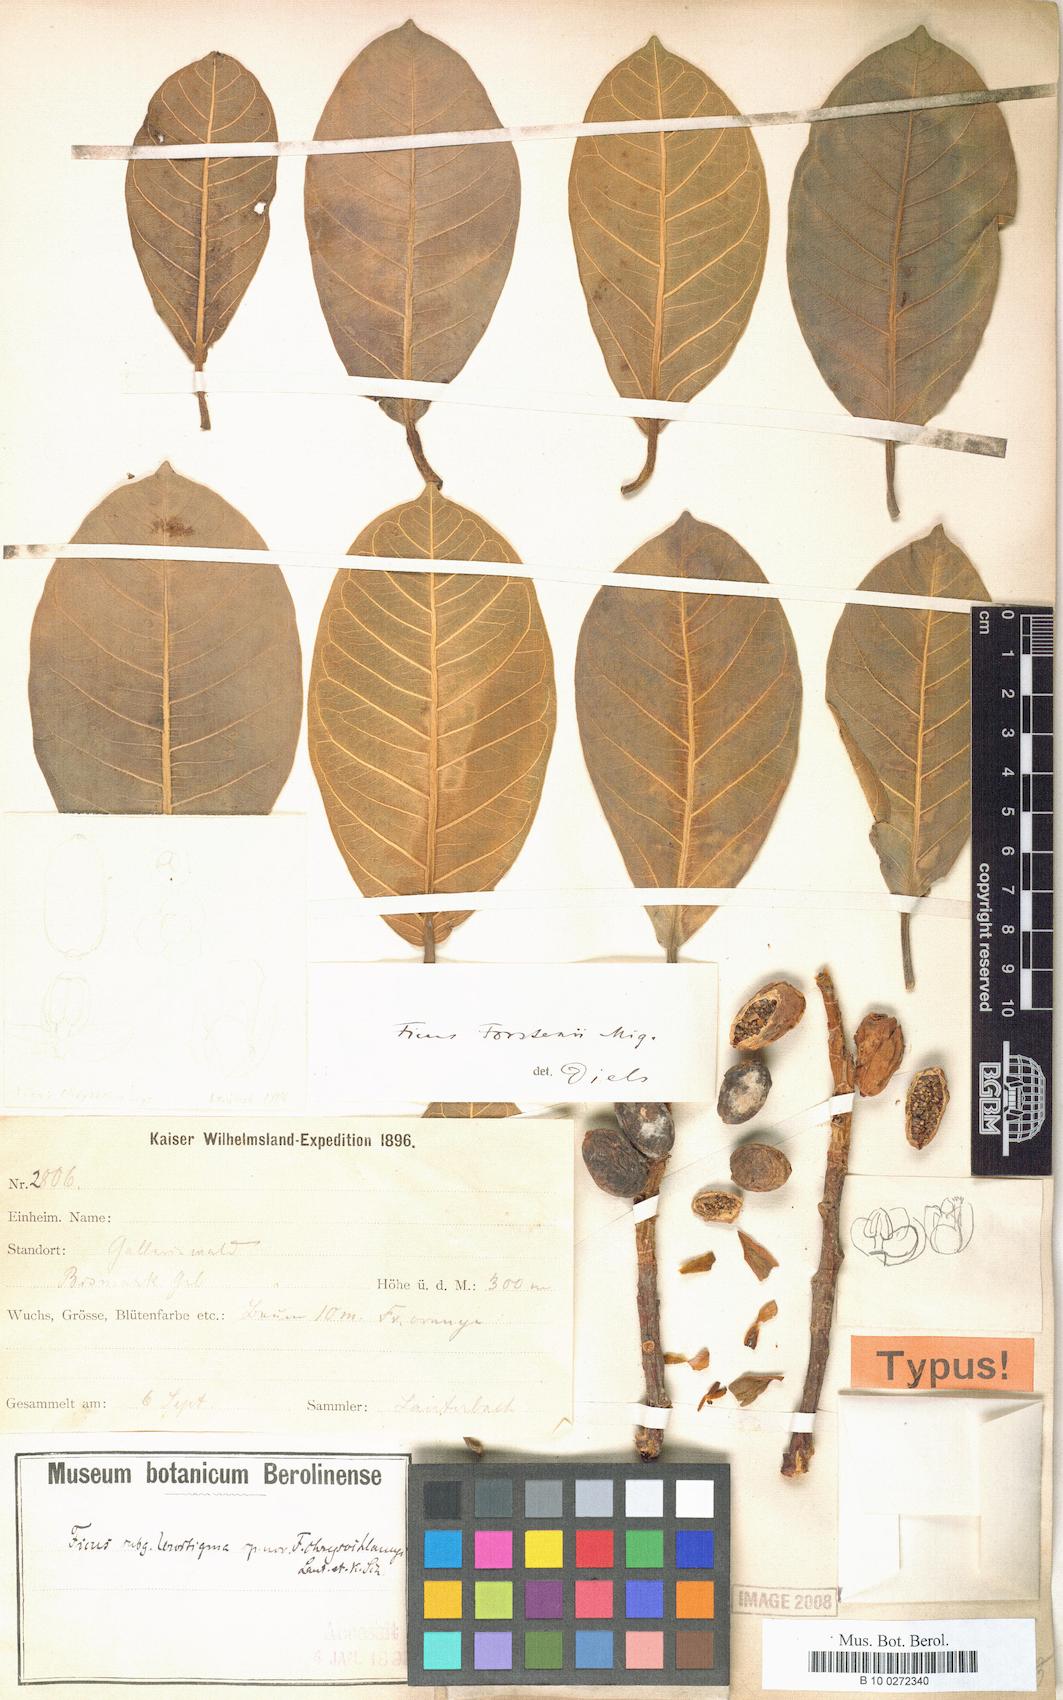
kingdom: Plantae
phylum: Tracheophyta
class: Magnoliopsida
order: Rosales
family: Moraceae
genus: Ficus
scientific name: Ficus forstenii
